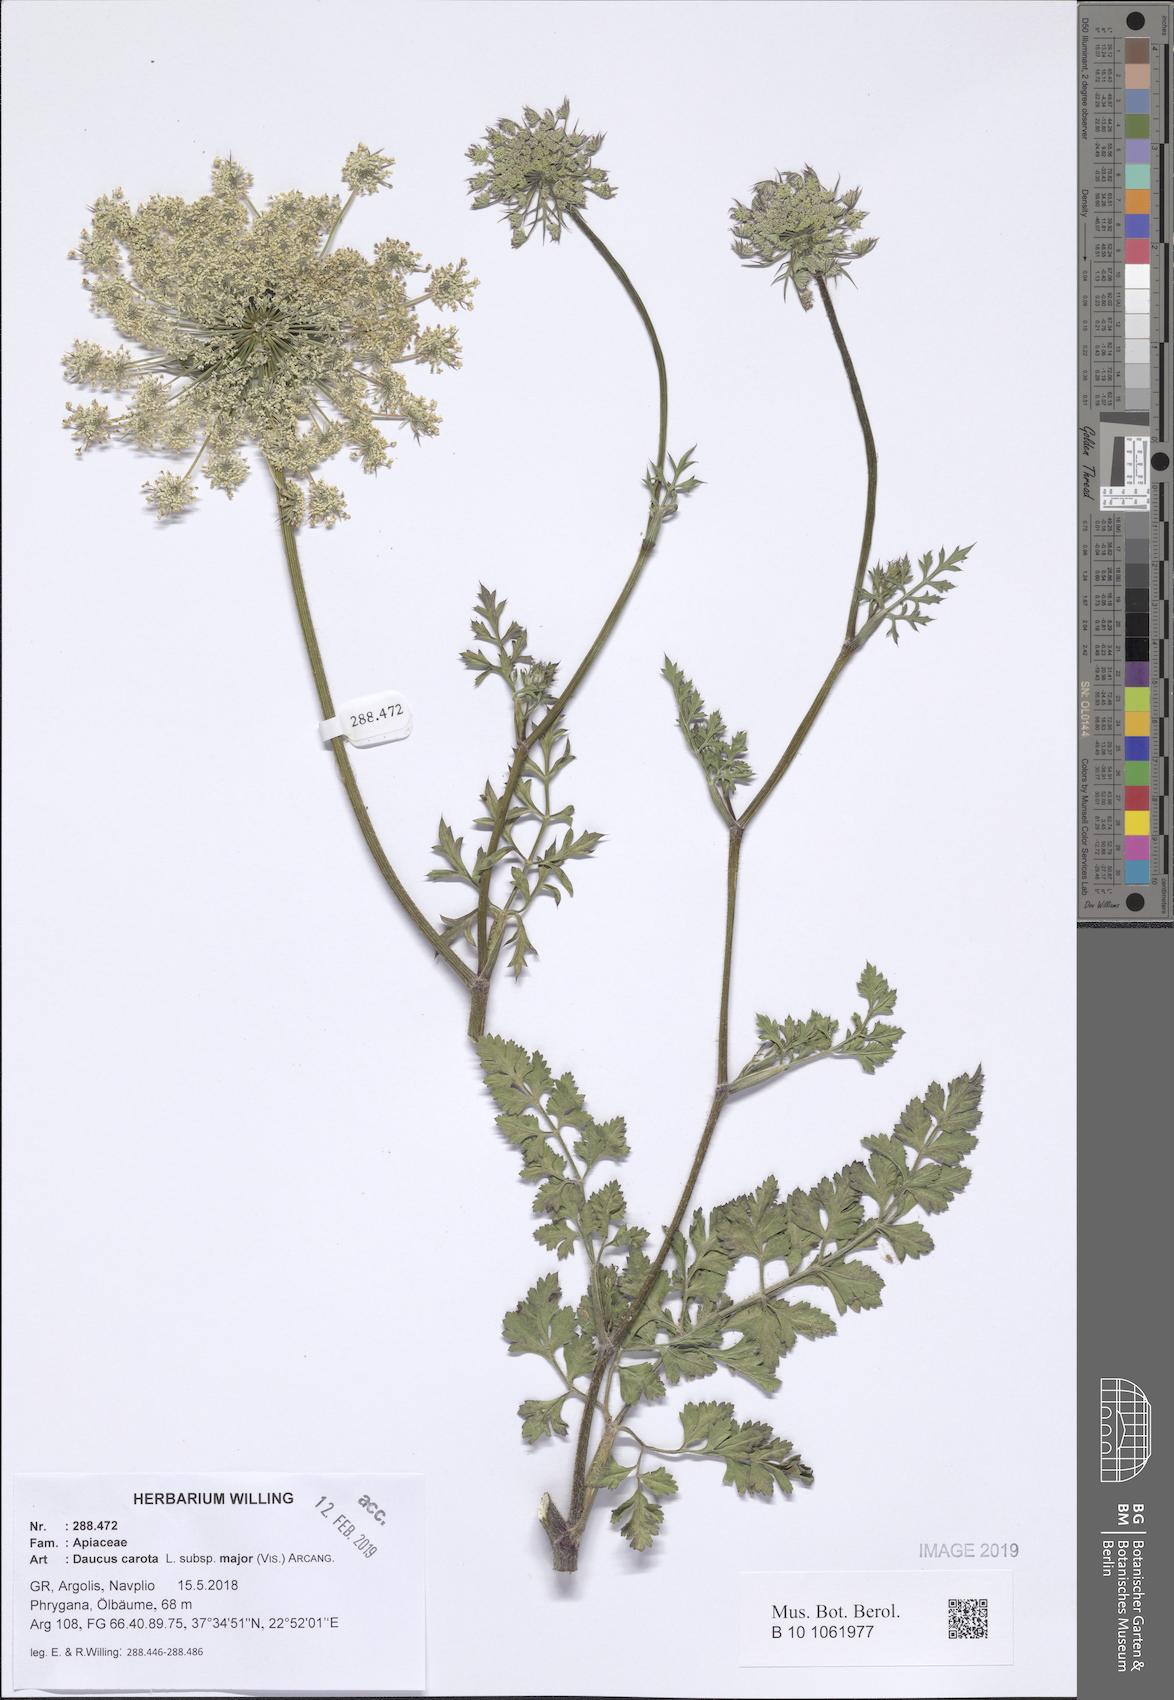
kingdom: Plantae
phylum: Tracheophyta
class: Magnoliopsida
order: Apiales
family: Apiaceae
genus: Daucus
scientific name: Daucus carota
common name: Wild carrot
